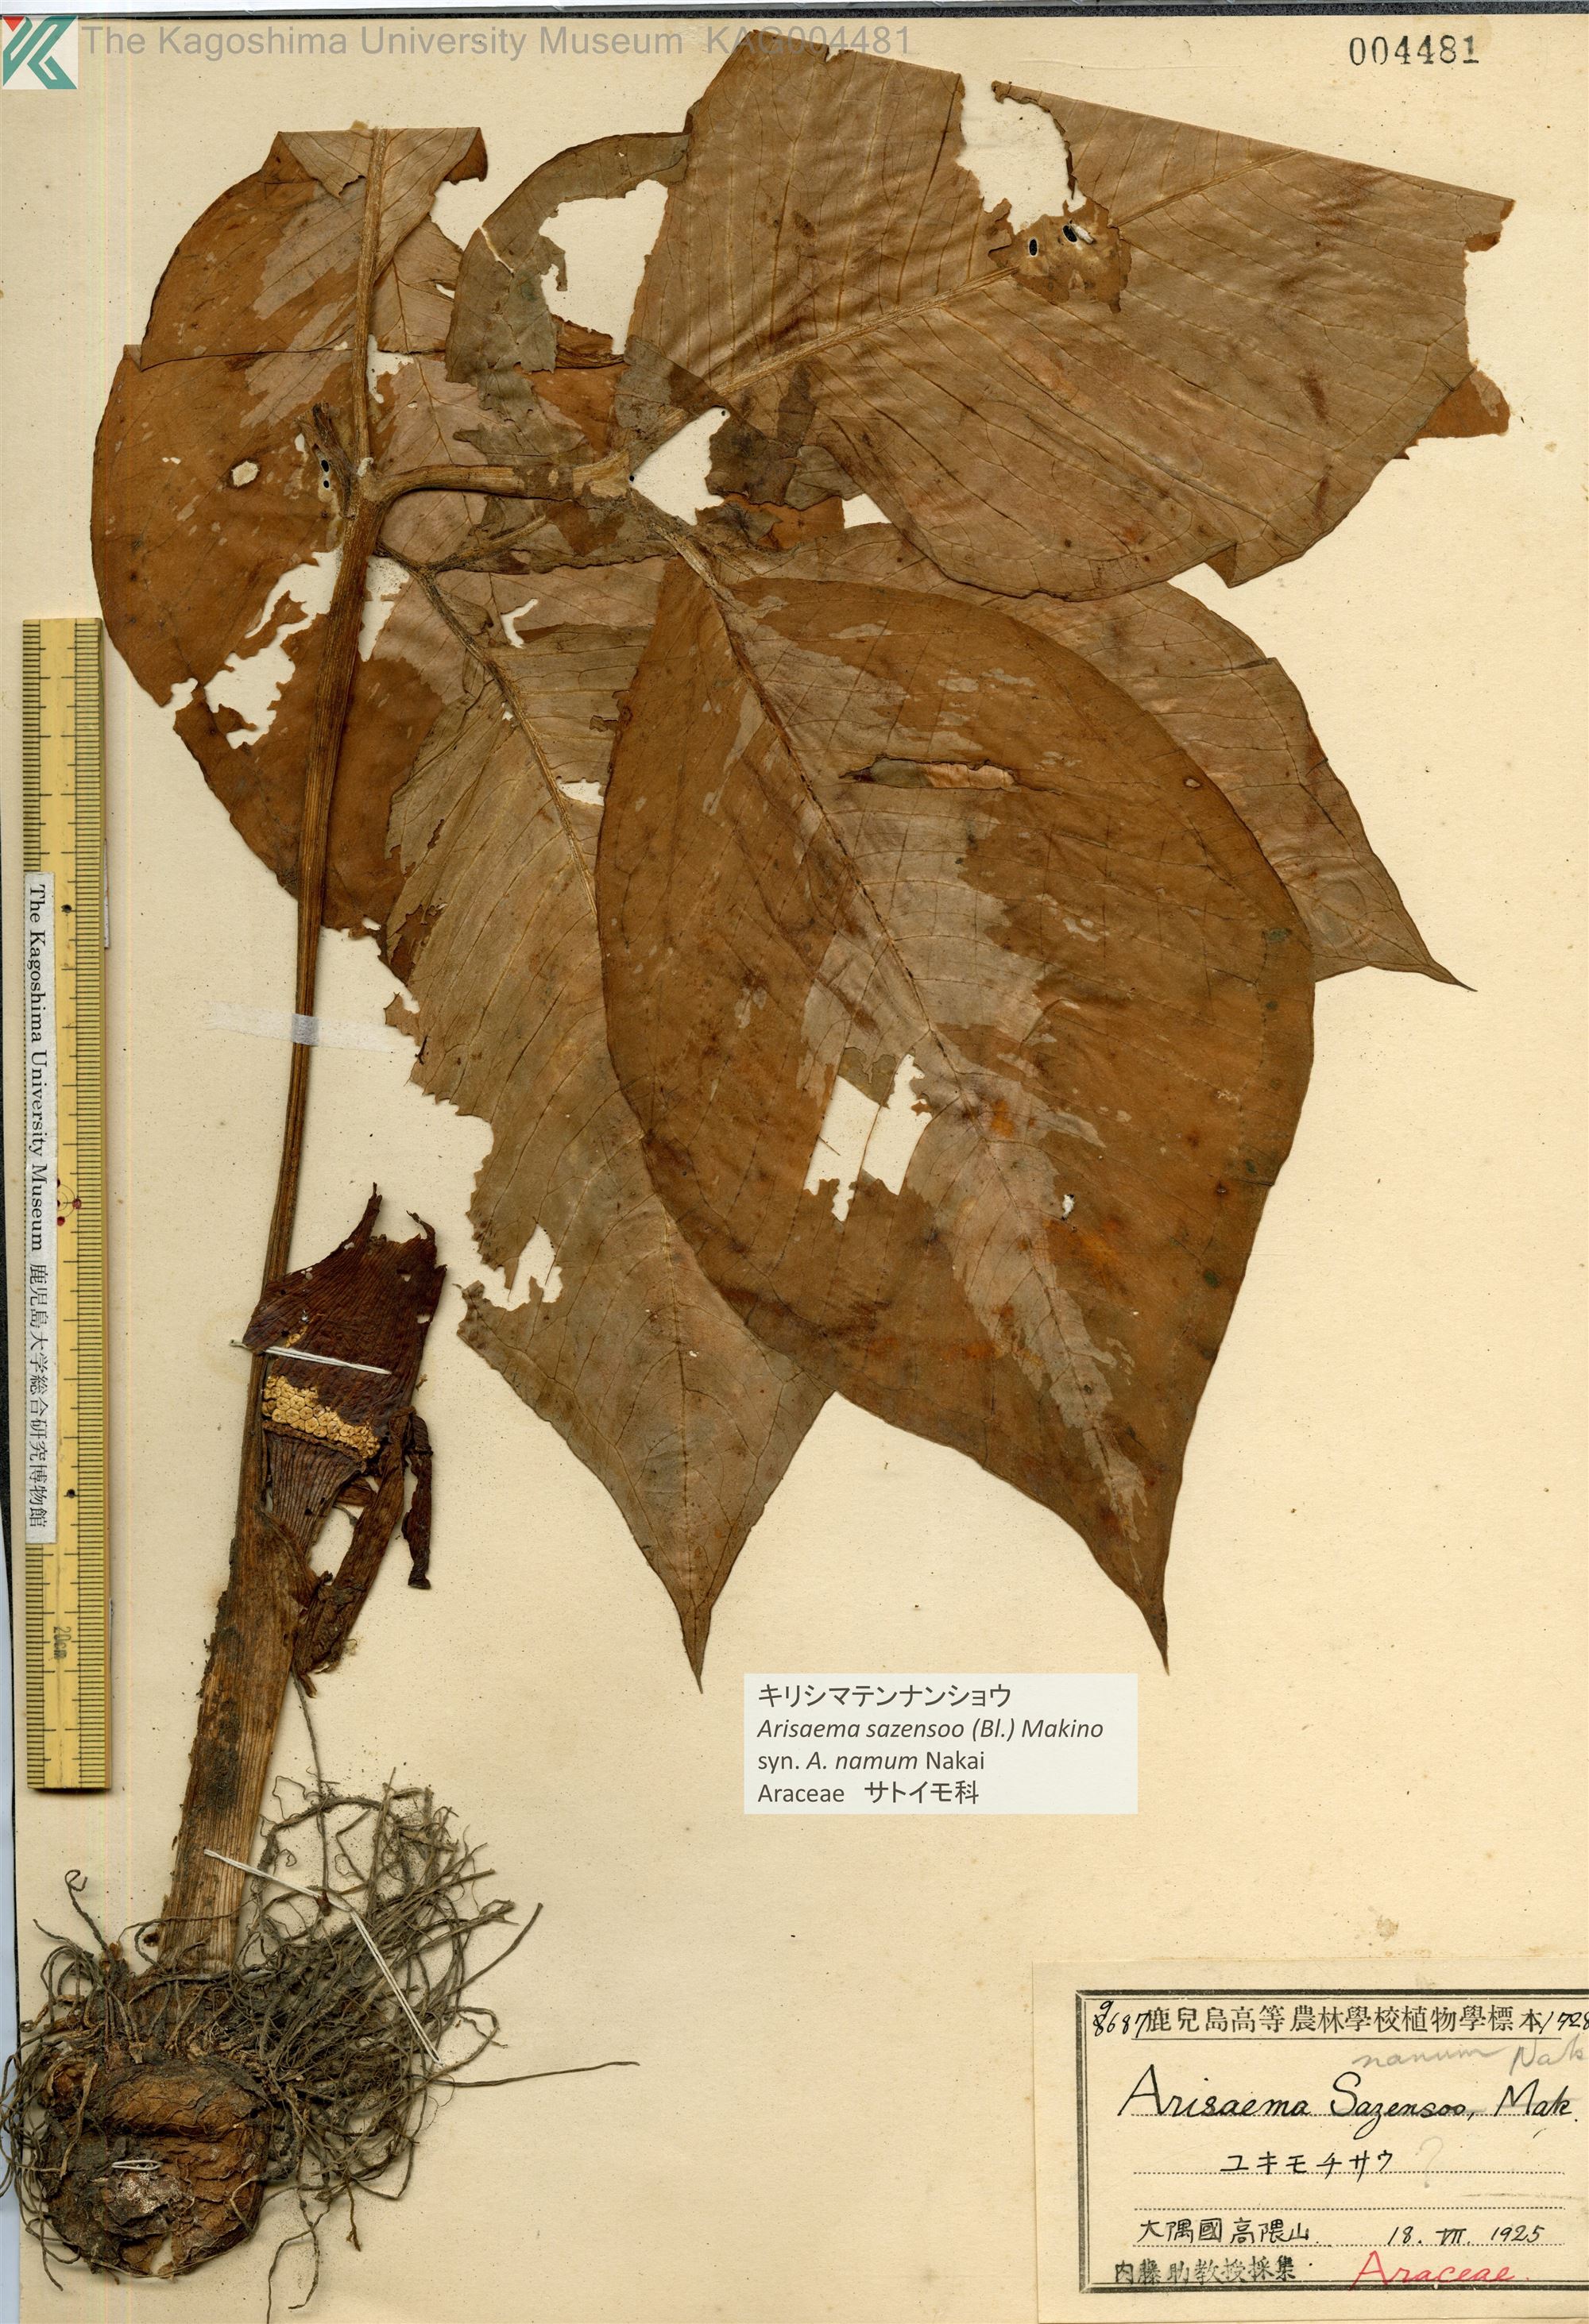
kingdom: Plantae
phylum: Tracheophyta
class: Liliopsida
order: Alismatales
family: Araceae
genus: Arisaema
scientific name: Arisaema sazensoo
